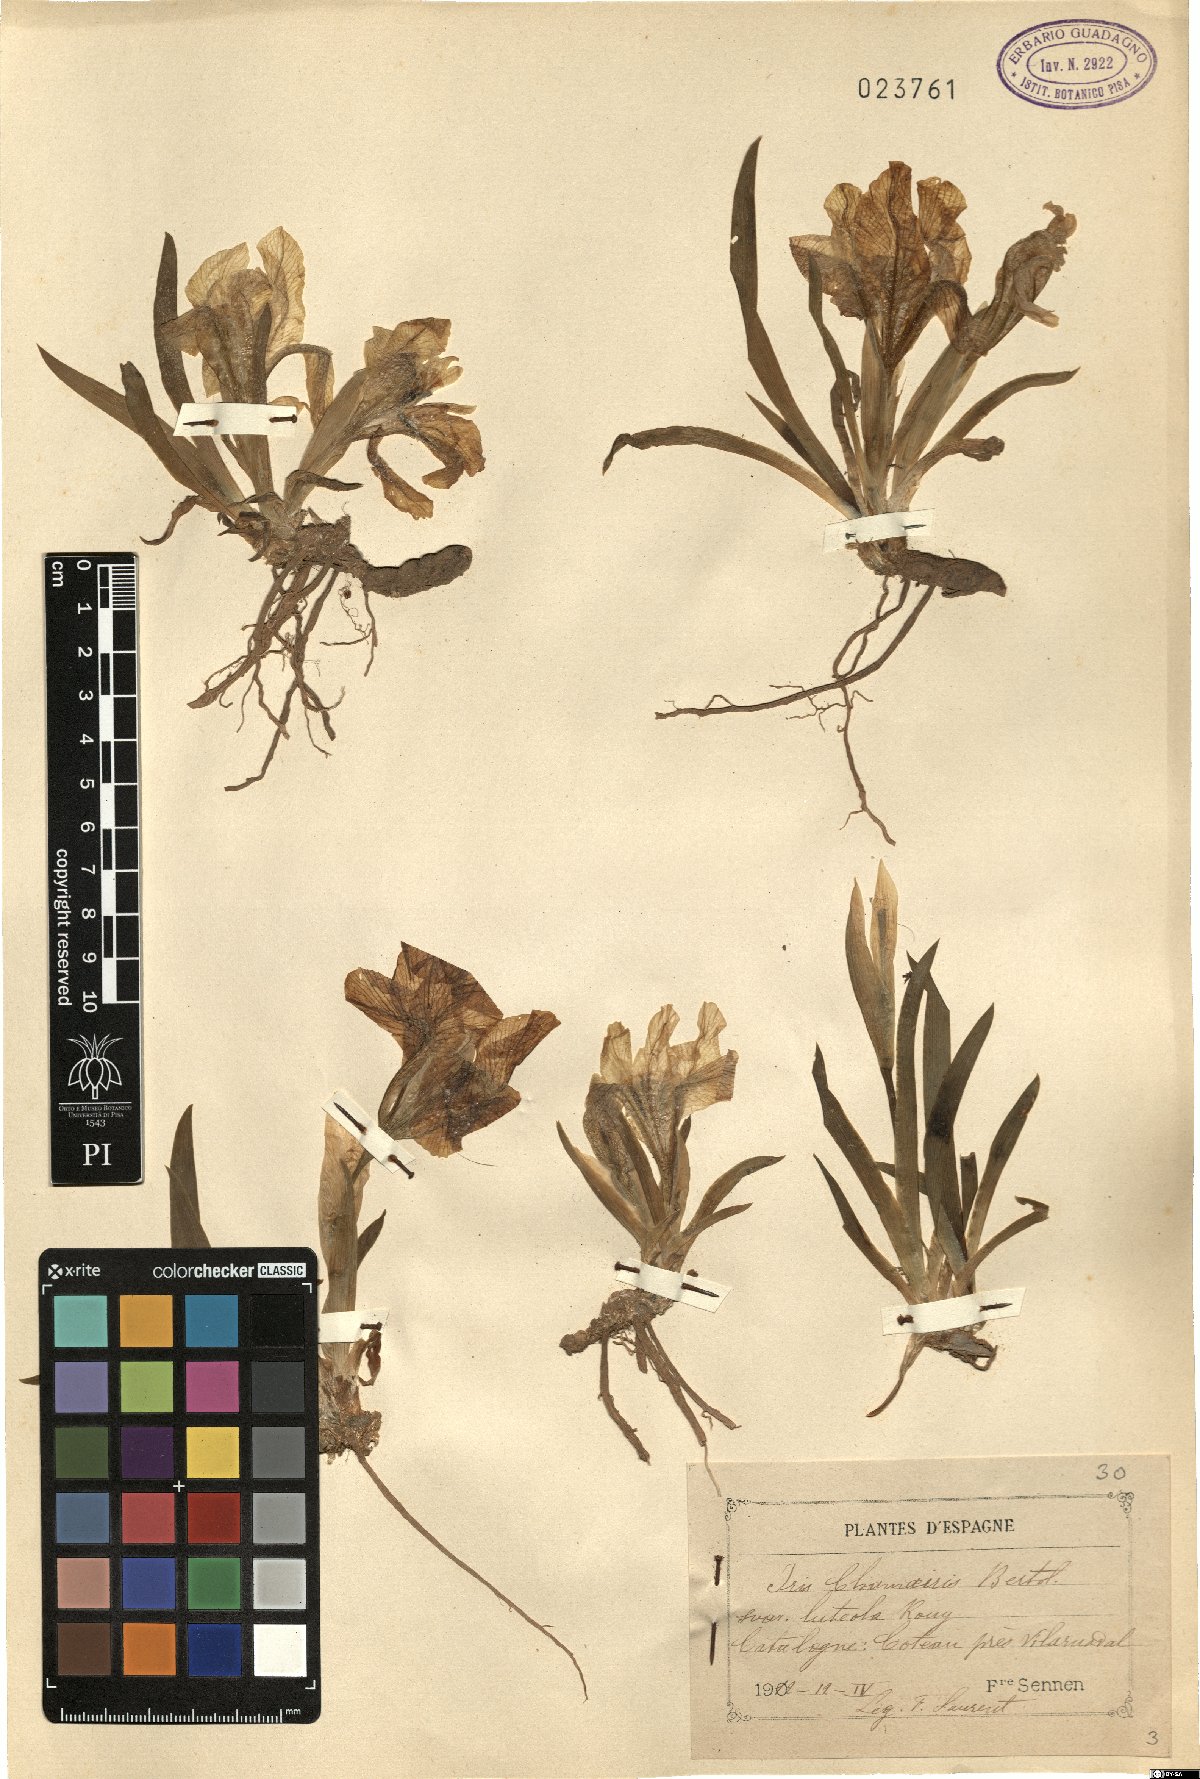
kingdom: Plantae
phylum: Tracheophyta
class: Liliopsida
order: Asparagales
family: Iridaceae
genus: Iris
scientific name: Iris lutescens
